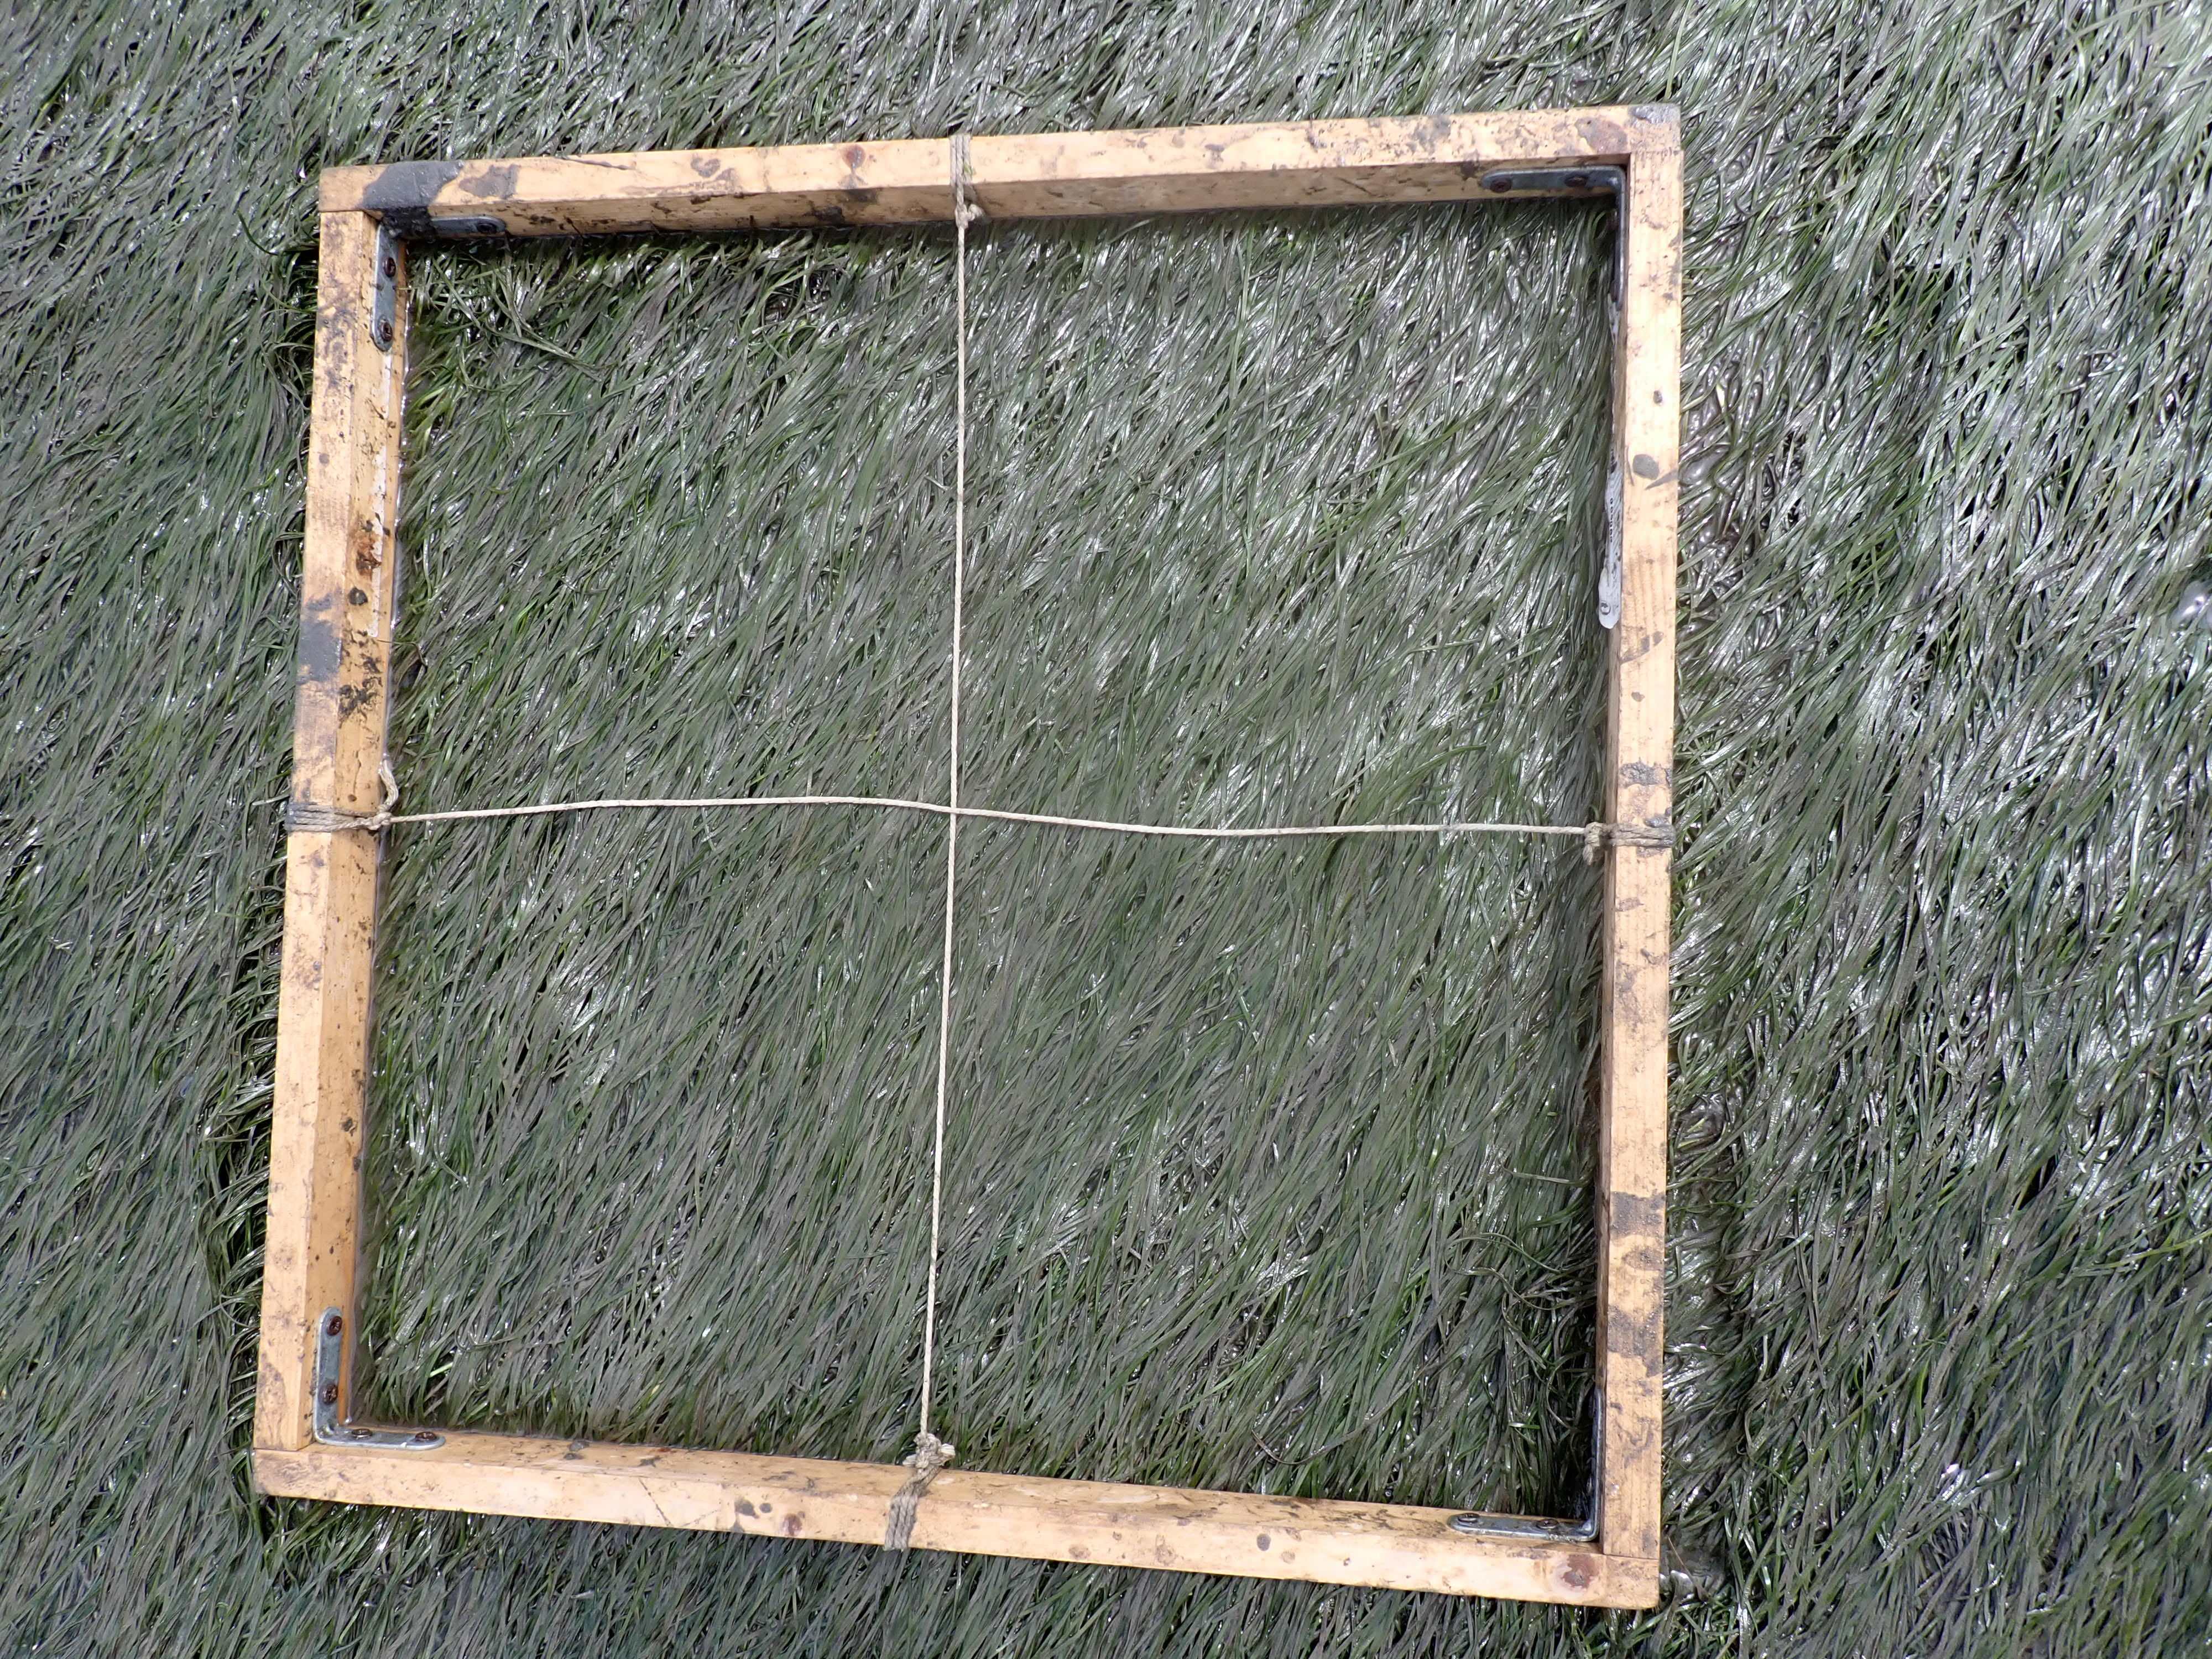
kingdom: Plantae
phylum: Tracheophyta
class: Liliopsida
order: Alismatales
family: Zosteraceae
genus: Zostera
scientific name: Zostera noltii
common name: Dwarf eelgrass
